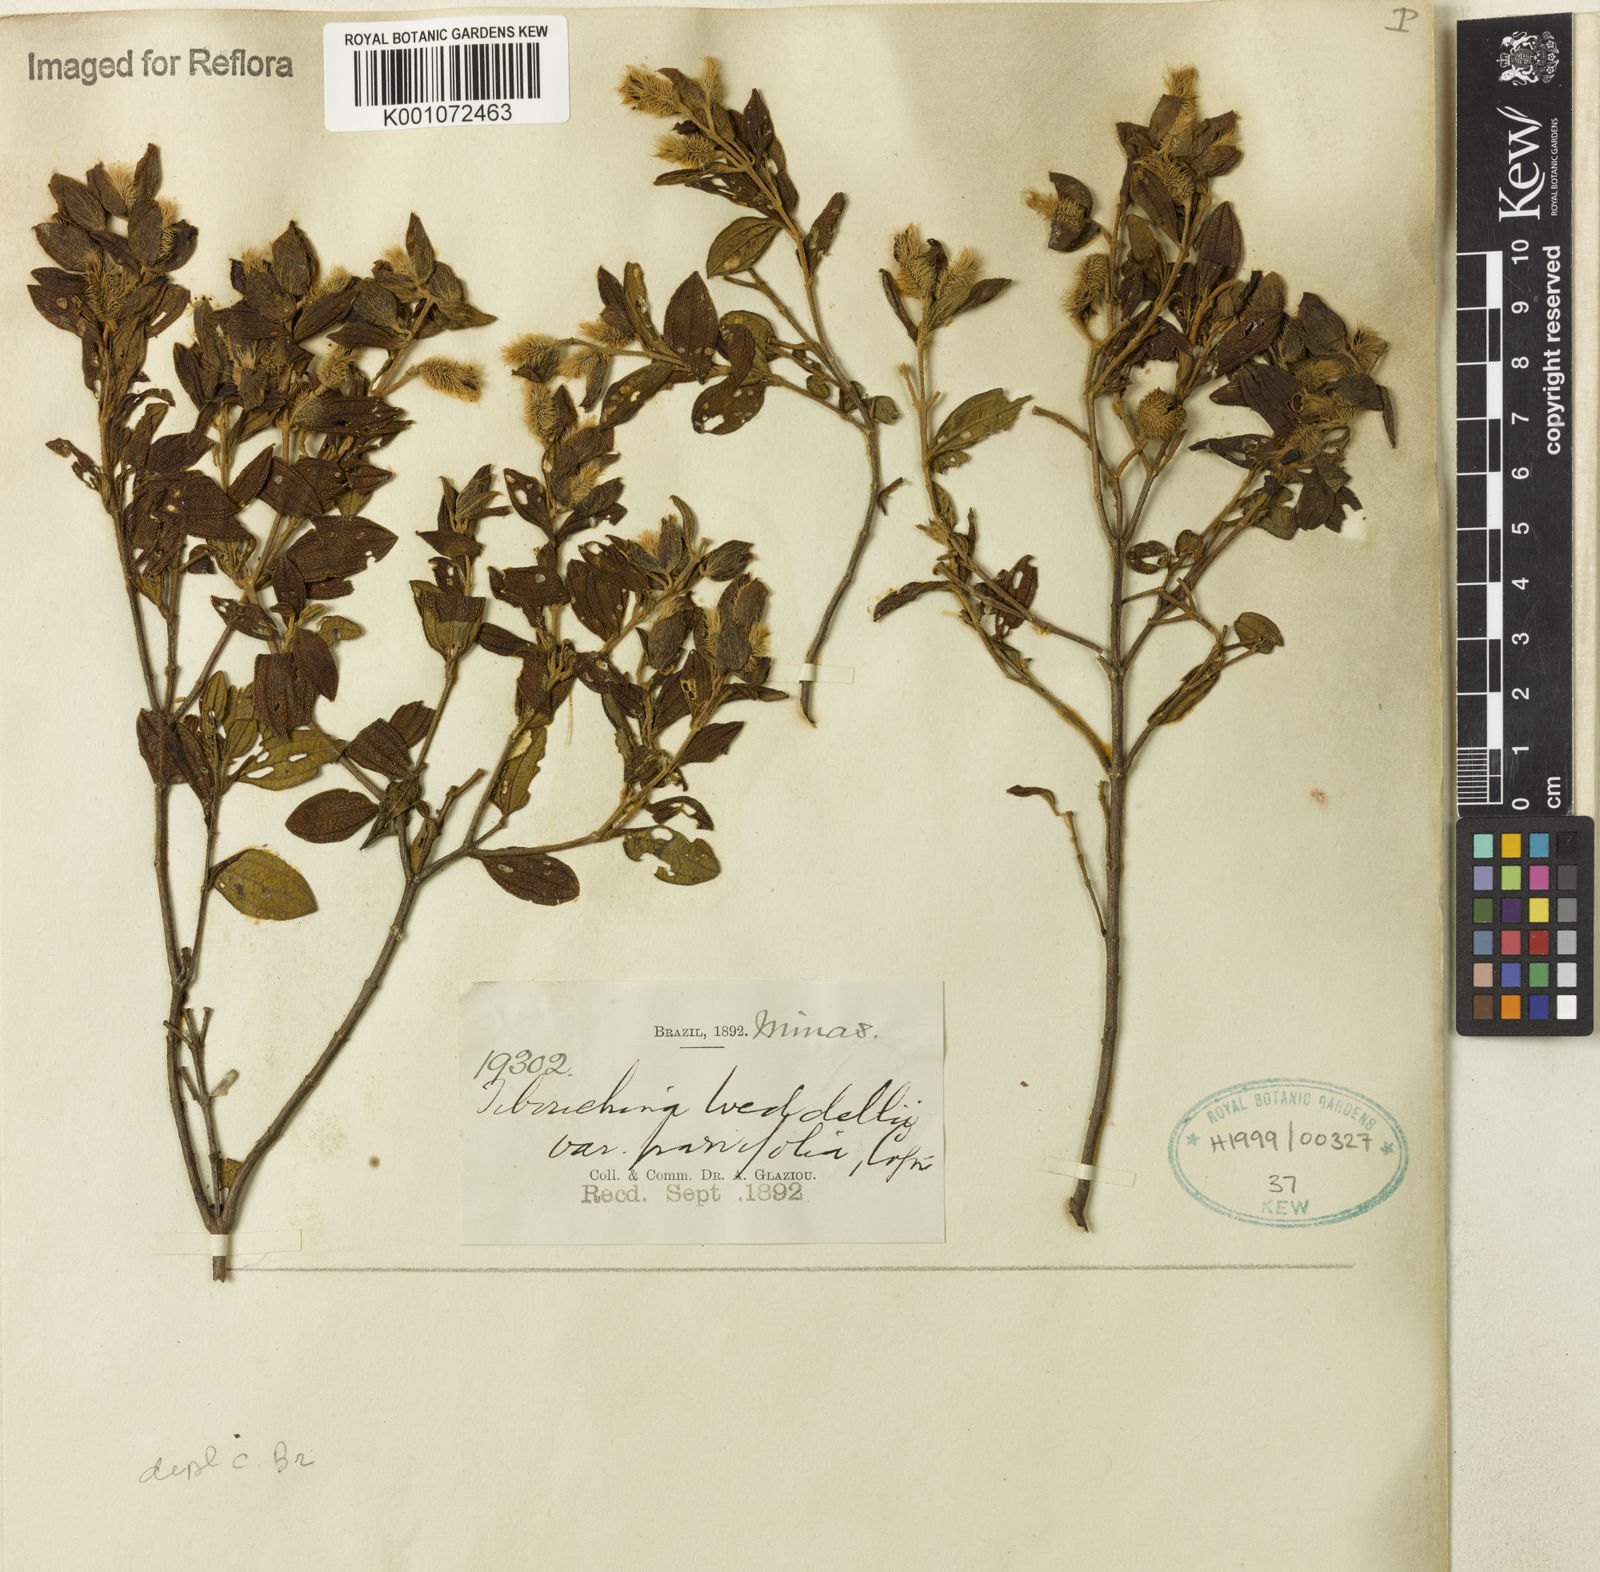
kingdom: Plantae
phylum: Tracheophyta
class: Magnoliopsida
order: Myrtales
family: Melastomataceae
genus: Pleroma
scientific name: Pleroma elegans
